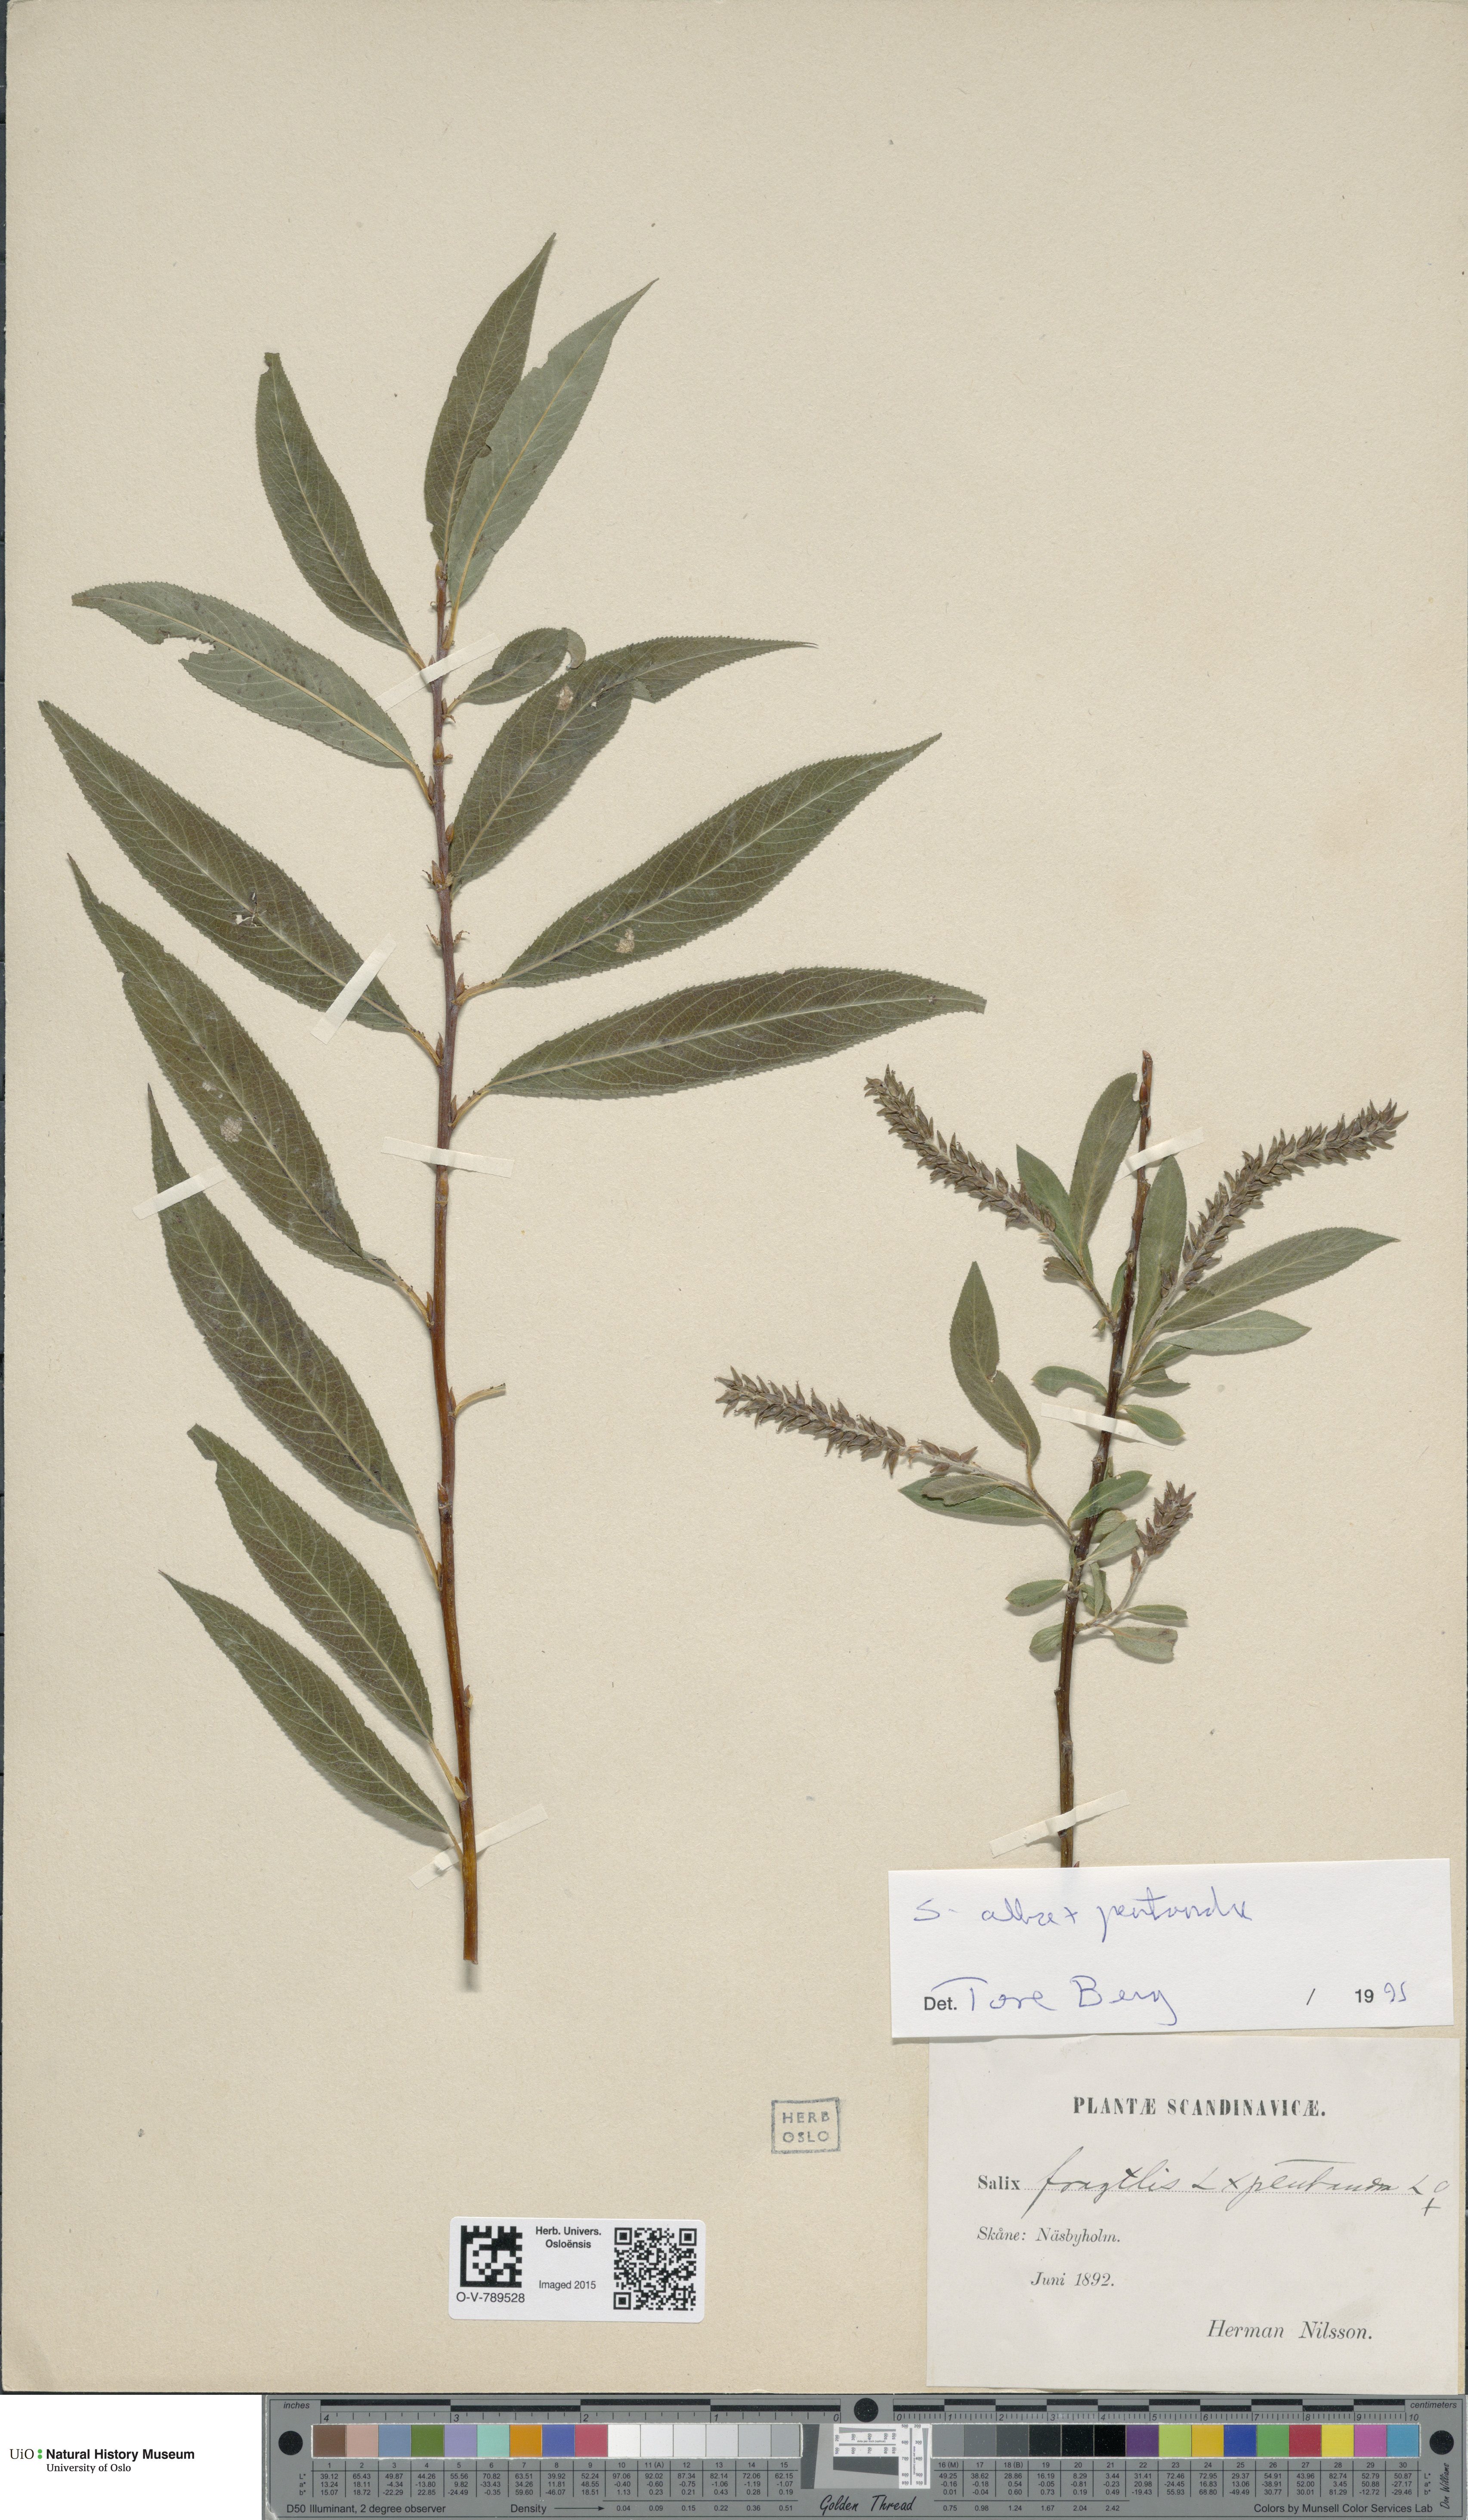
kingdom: Plantae
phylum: Tracheophyta
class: Magnoliopsida
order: Malpighiales
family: Salicaceae
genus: Salix
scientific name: Salix
